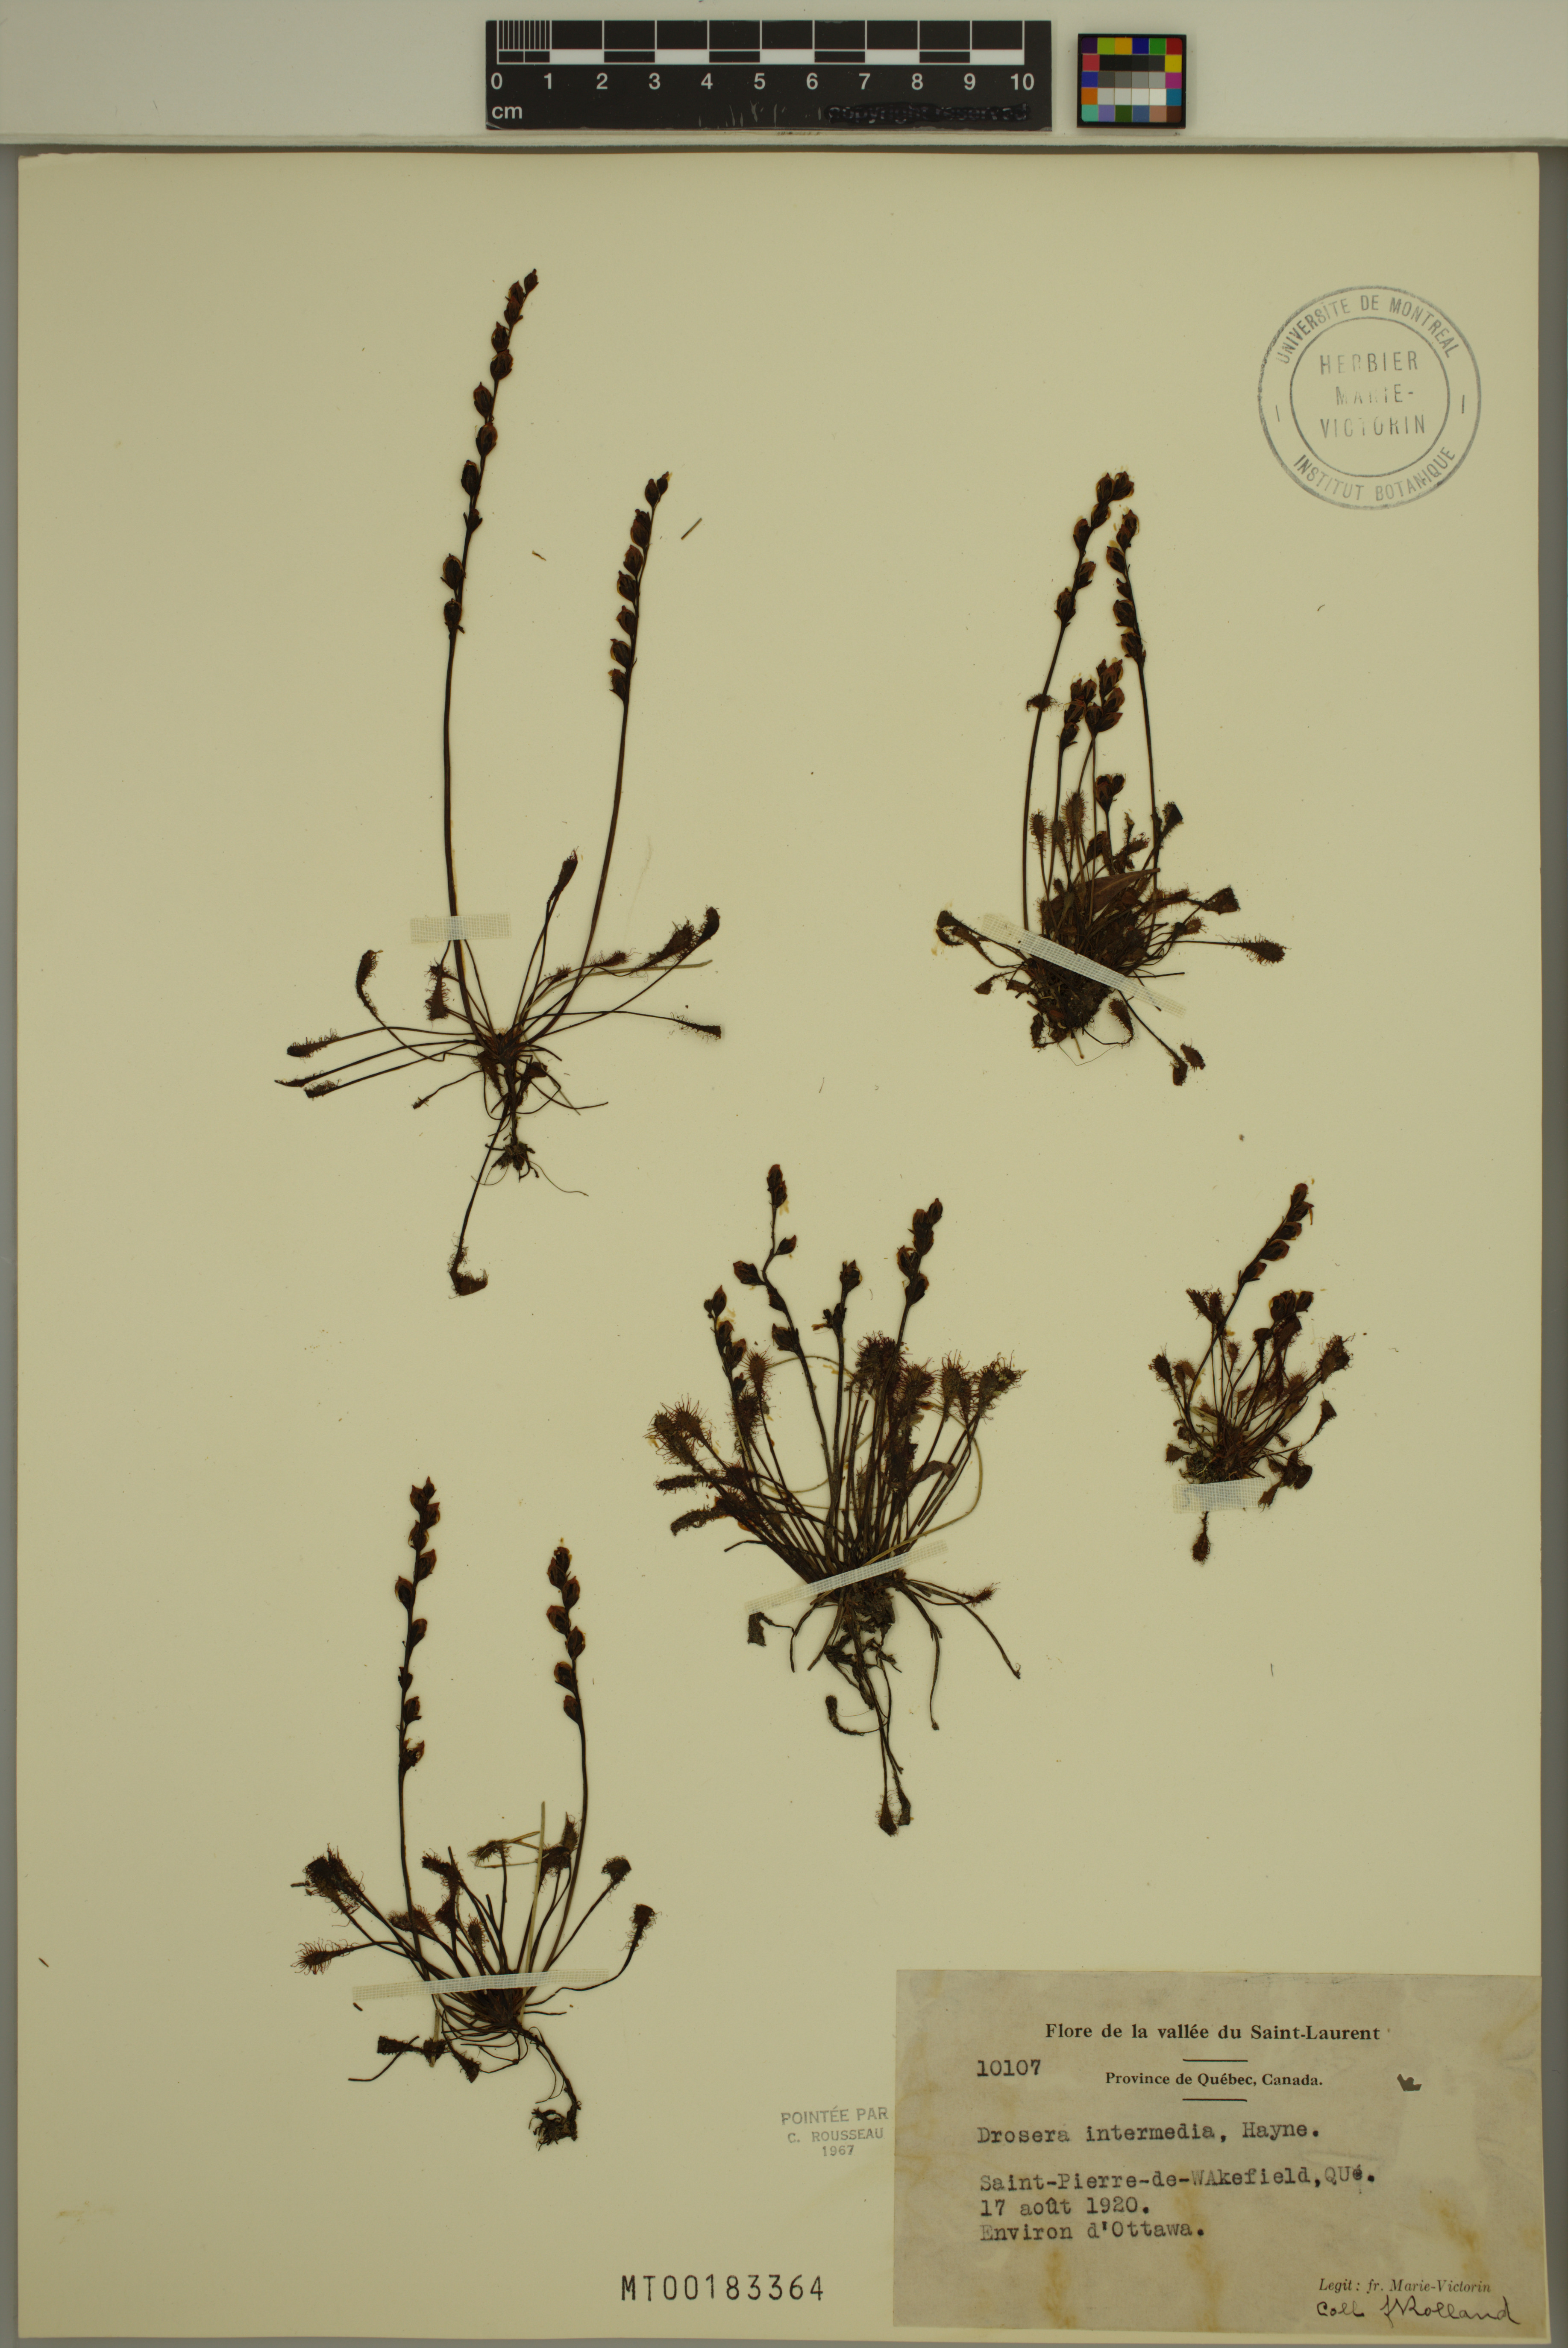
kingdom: Plantae
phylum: Tracheophyta
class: Magnoliopsida
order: Caryophyllales
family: Droseraceae
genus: Drosera
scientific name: Drosera intermedia
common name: Oblong-leaved sundew
